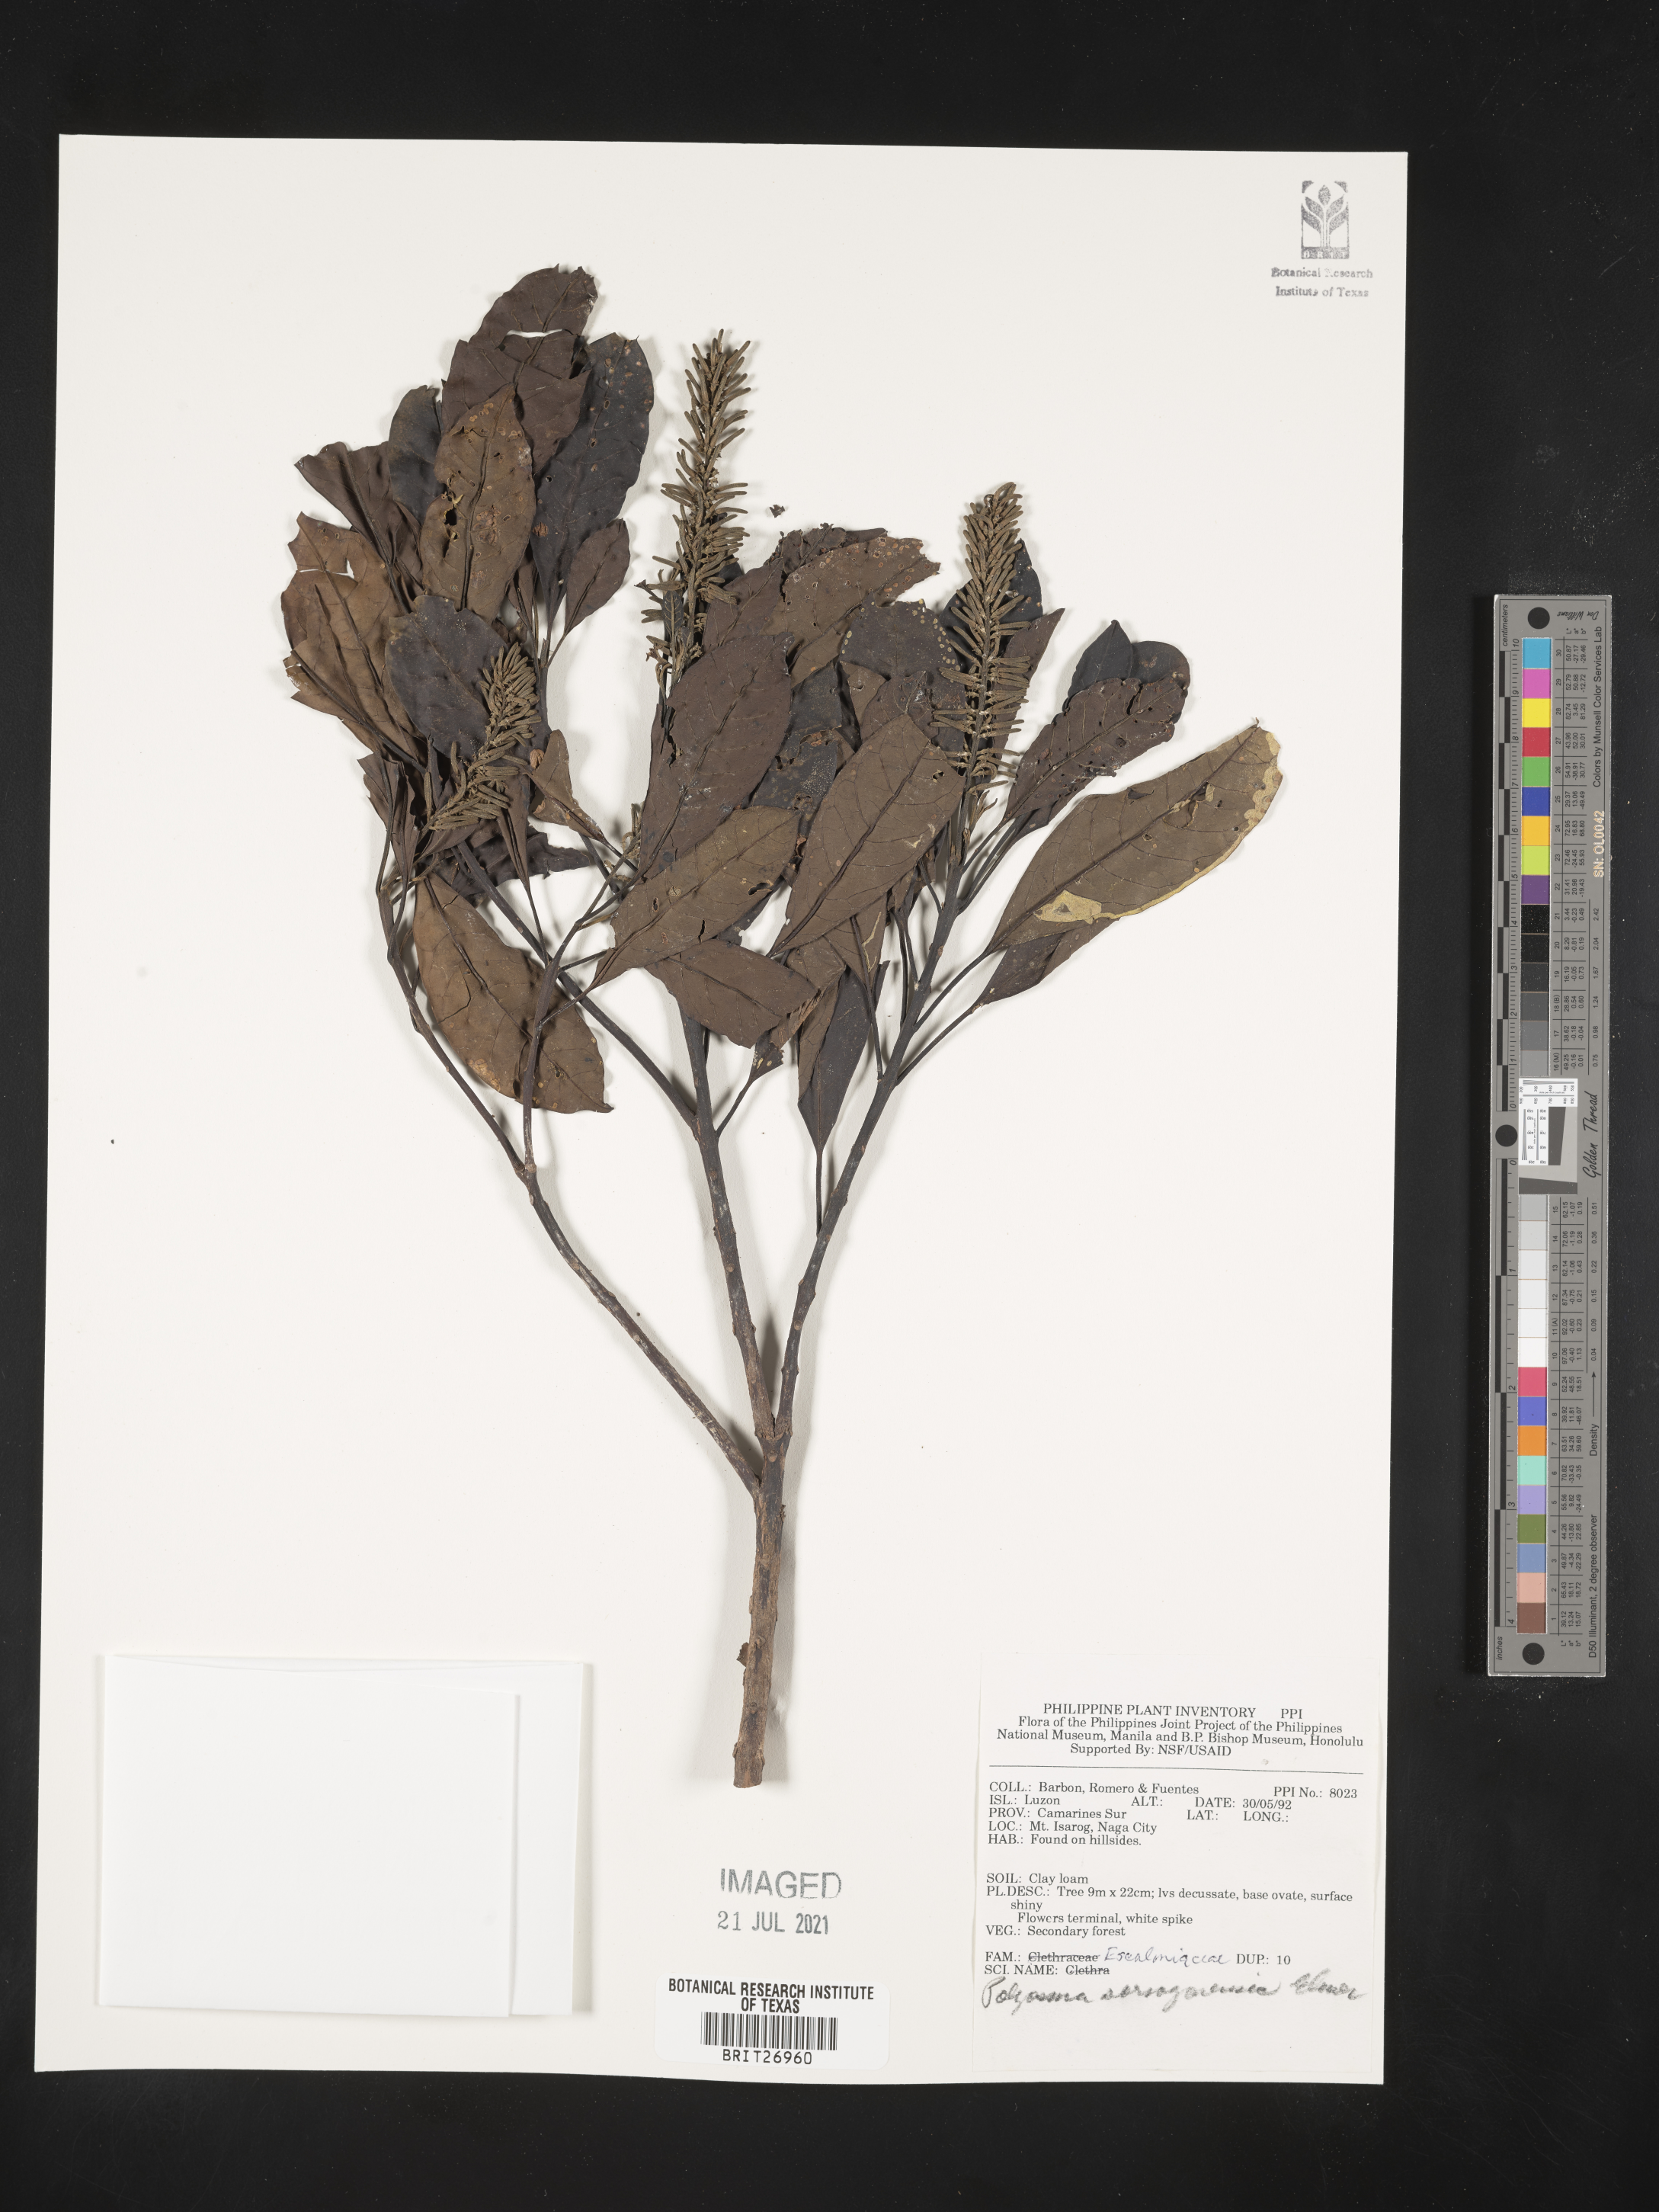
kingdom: Plantae
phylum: Tracheophyta
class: Magnoliopsida
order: Escalloniales
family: Escalloniaceae
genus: Polyosma
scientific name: Polyosma integrifolia
